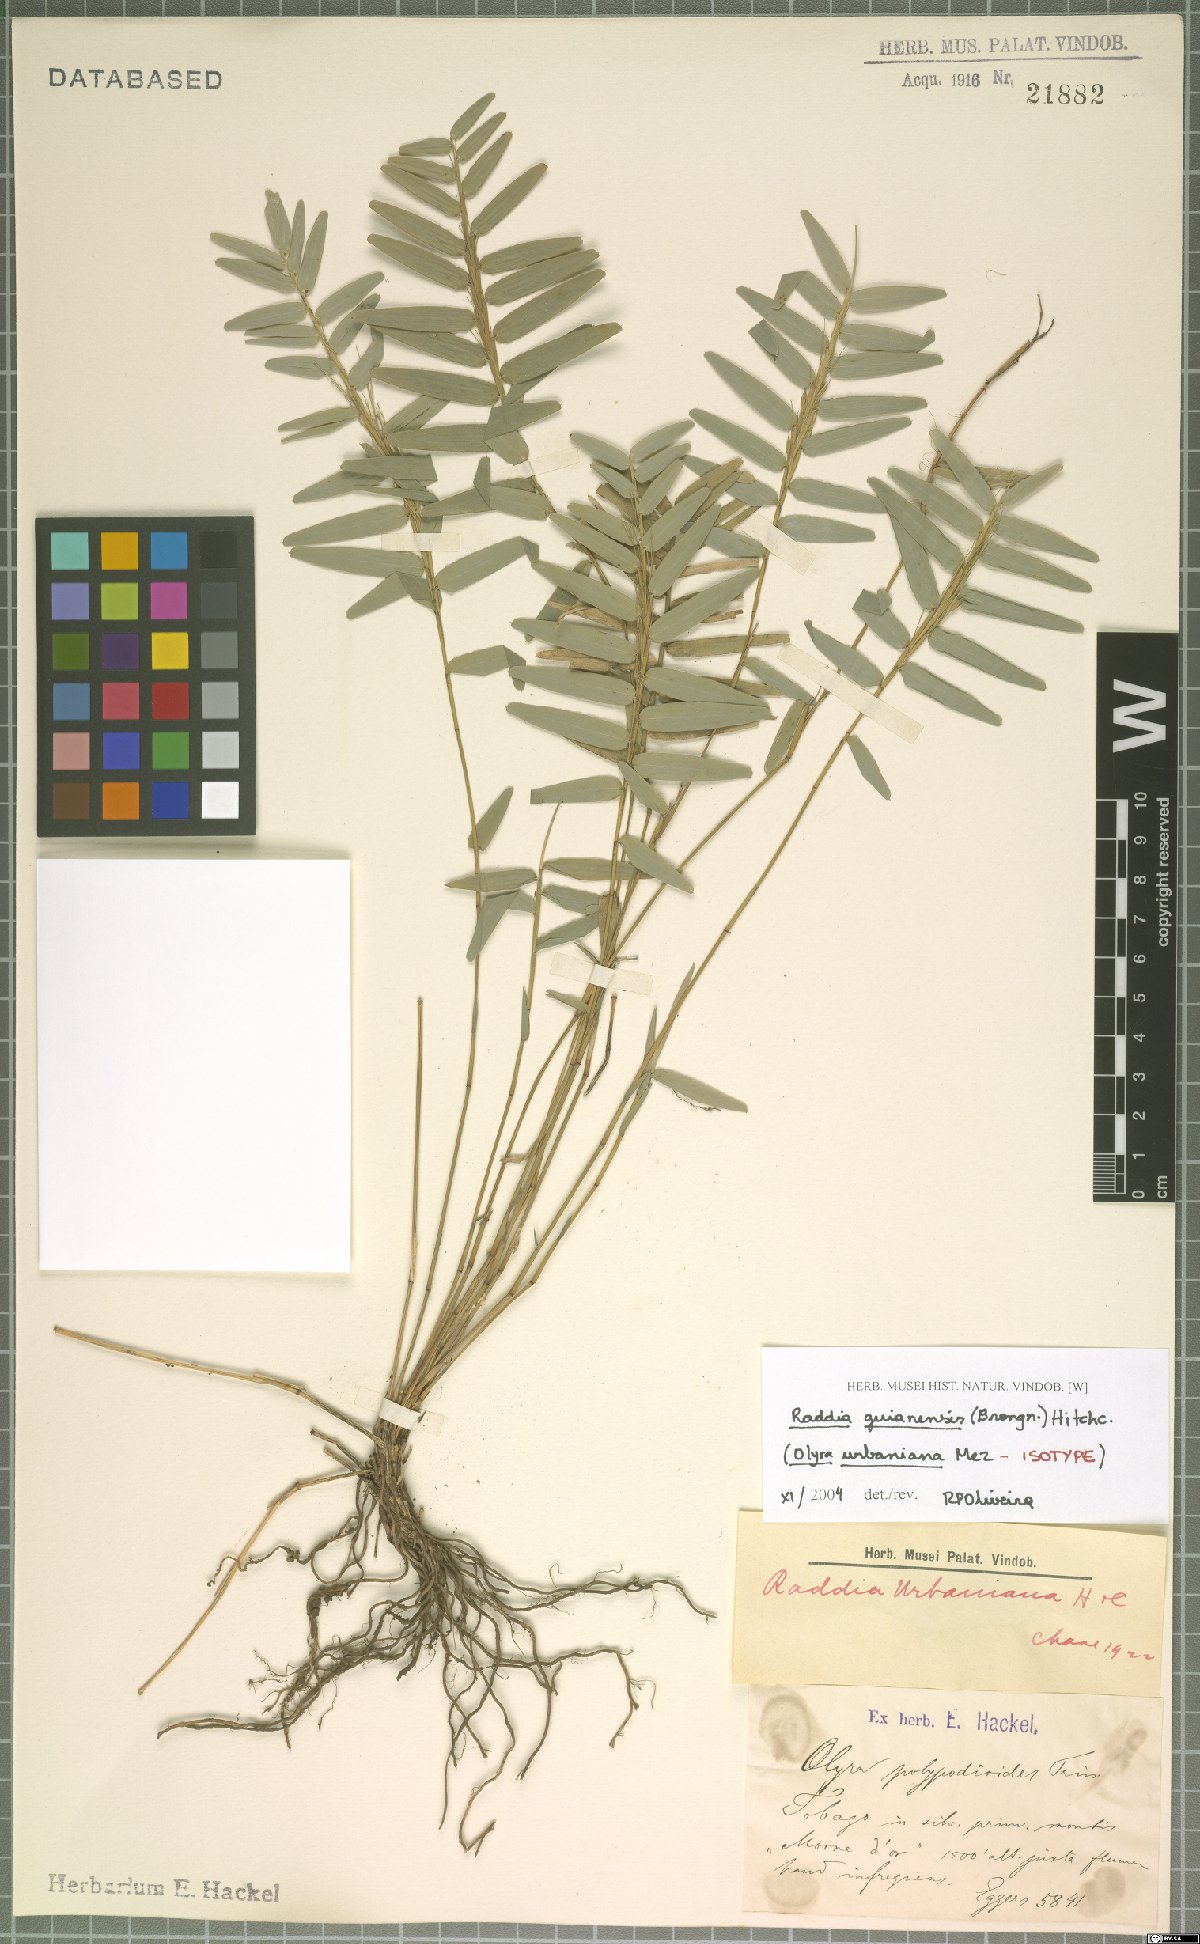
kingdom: Plantae
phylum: Tracheophyta
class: Liliopsida
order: Poales
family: Poaceae
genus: Raddia
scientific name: Raddia guianensis
